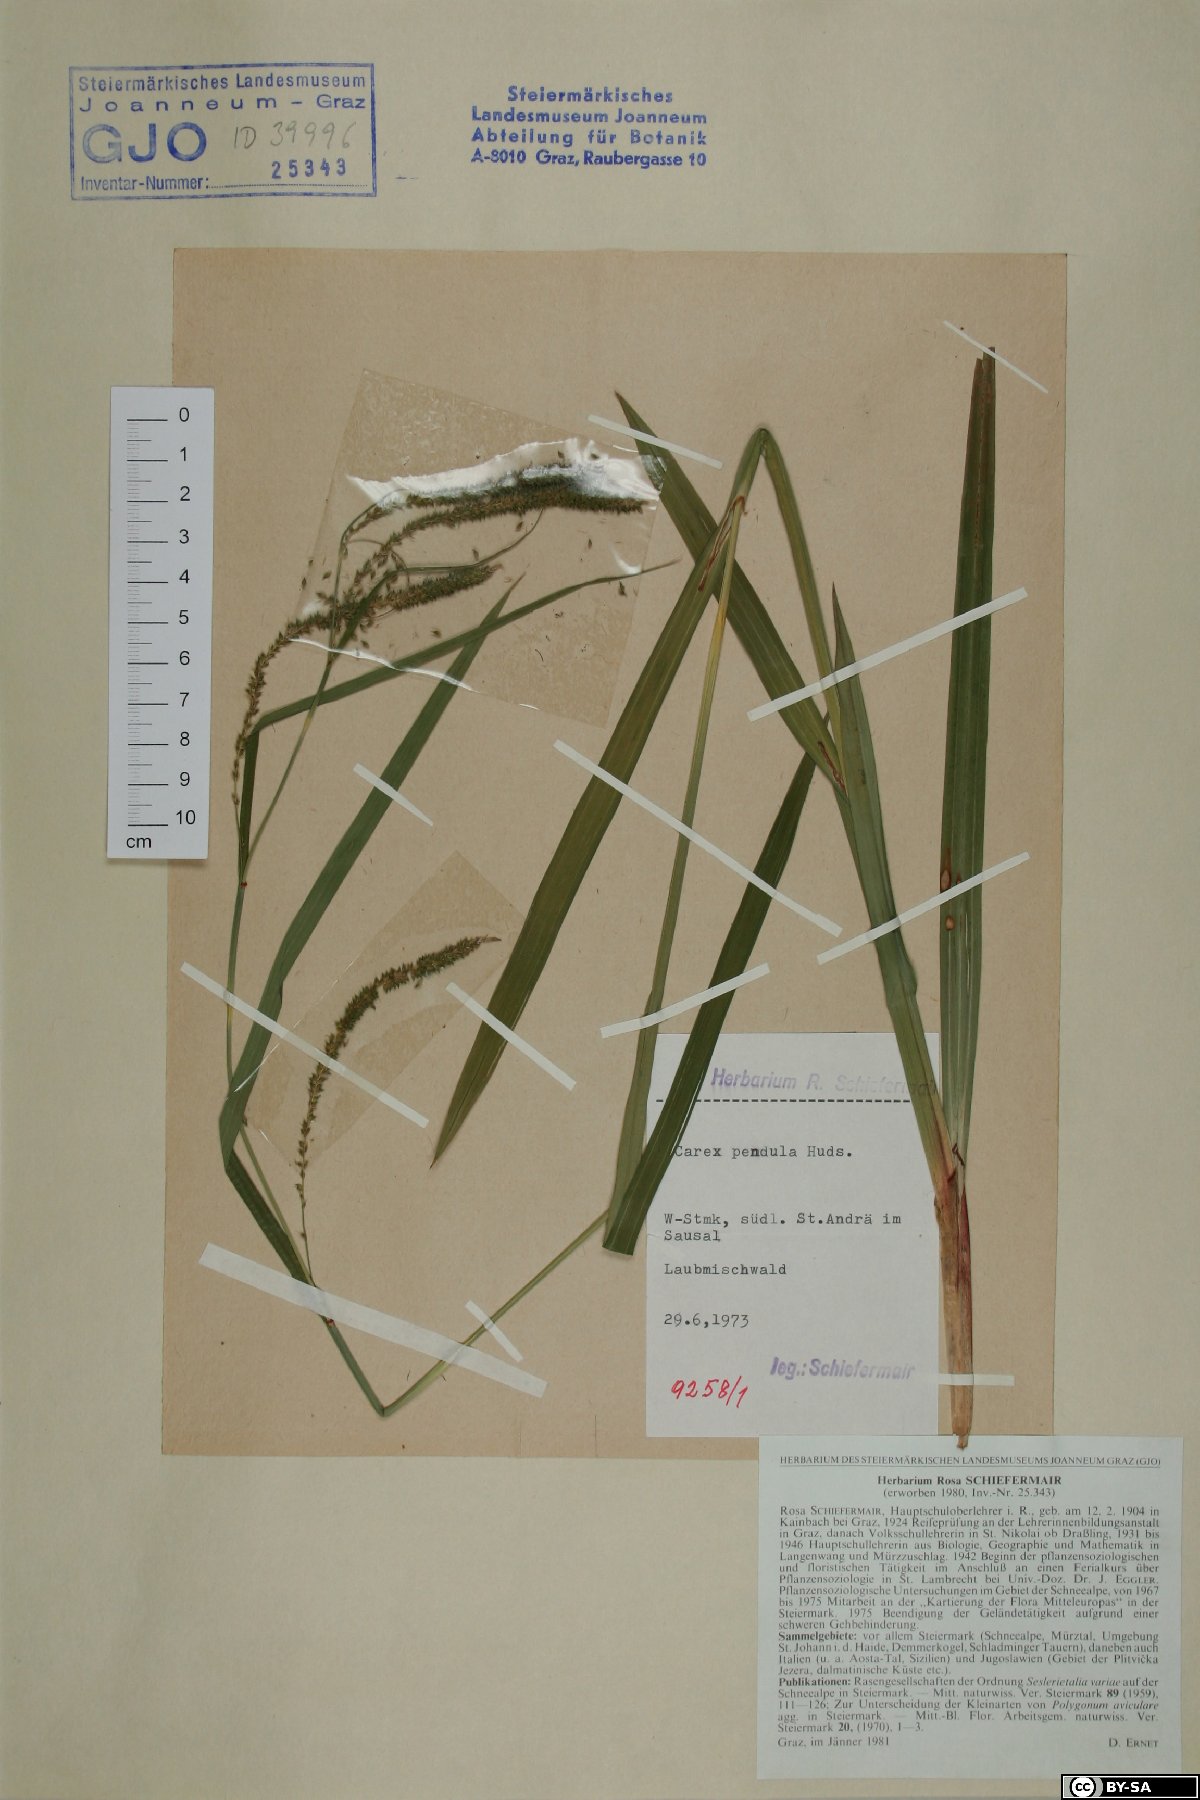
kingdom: Plantae
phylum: Tracheophyta
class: Liliopsida
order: Poales
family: Cyperaceae
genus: Carex
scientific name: Carex pendula
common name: Pendulous sedge
